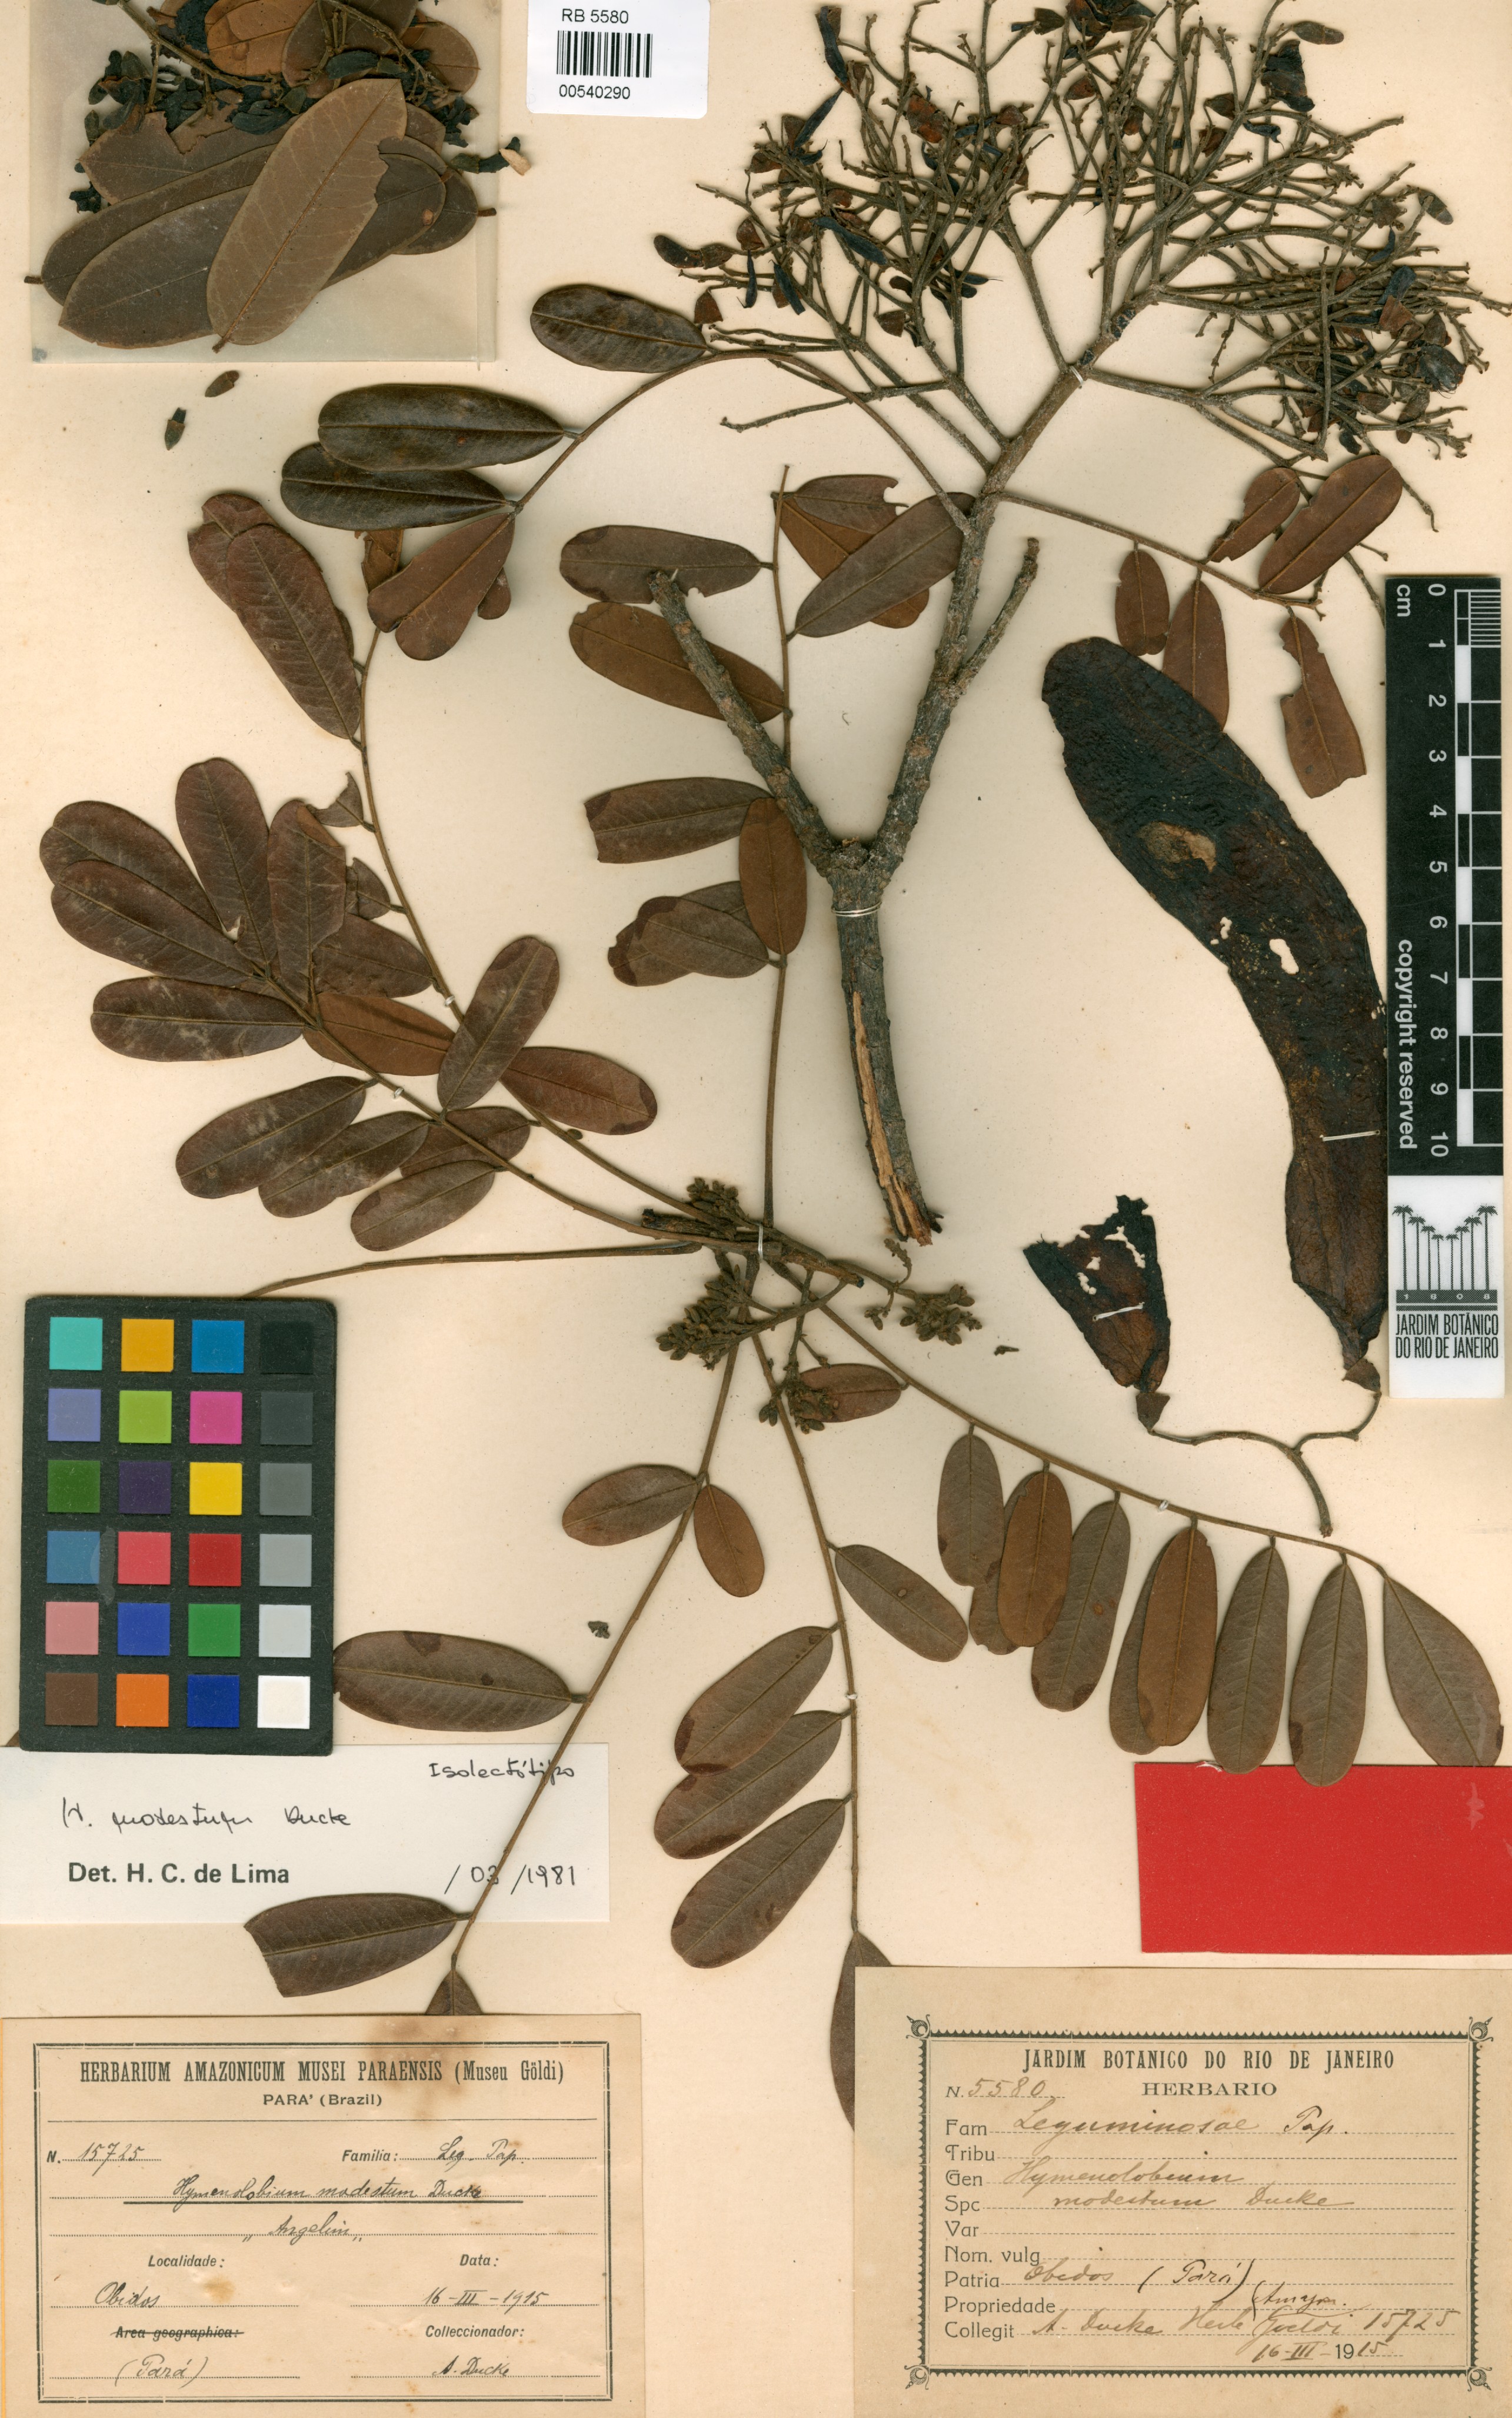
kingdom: Plantae
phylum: Tracheophyta
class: Magnoliopsida
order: Fabales
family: Fabaceae
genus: Hymenolobium
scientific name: Hymenolobium modestum
